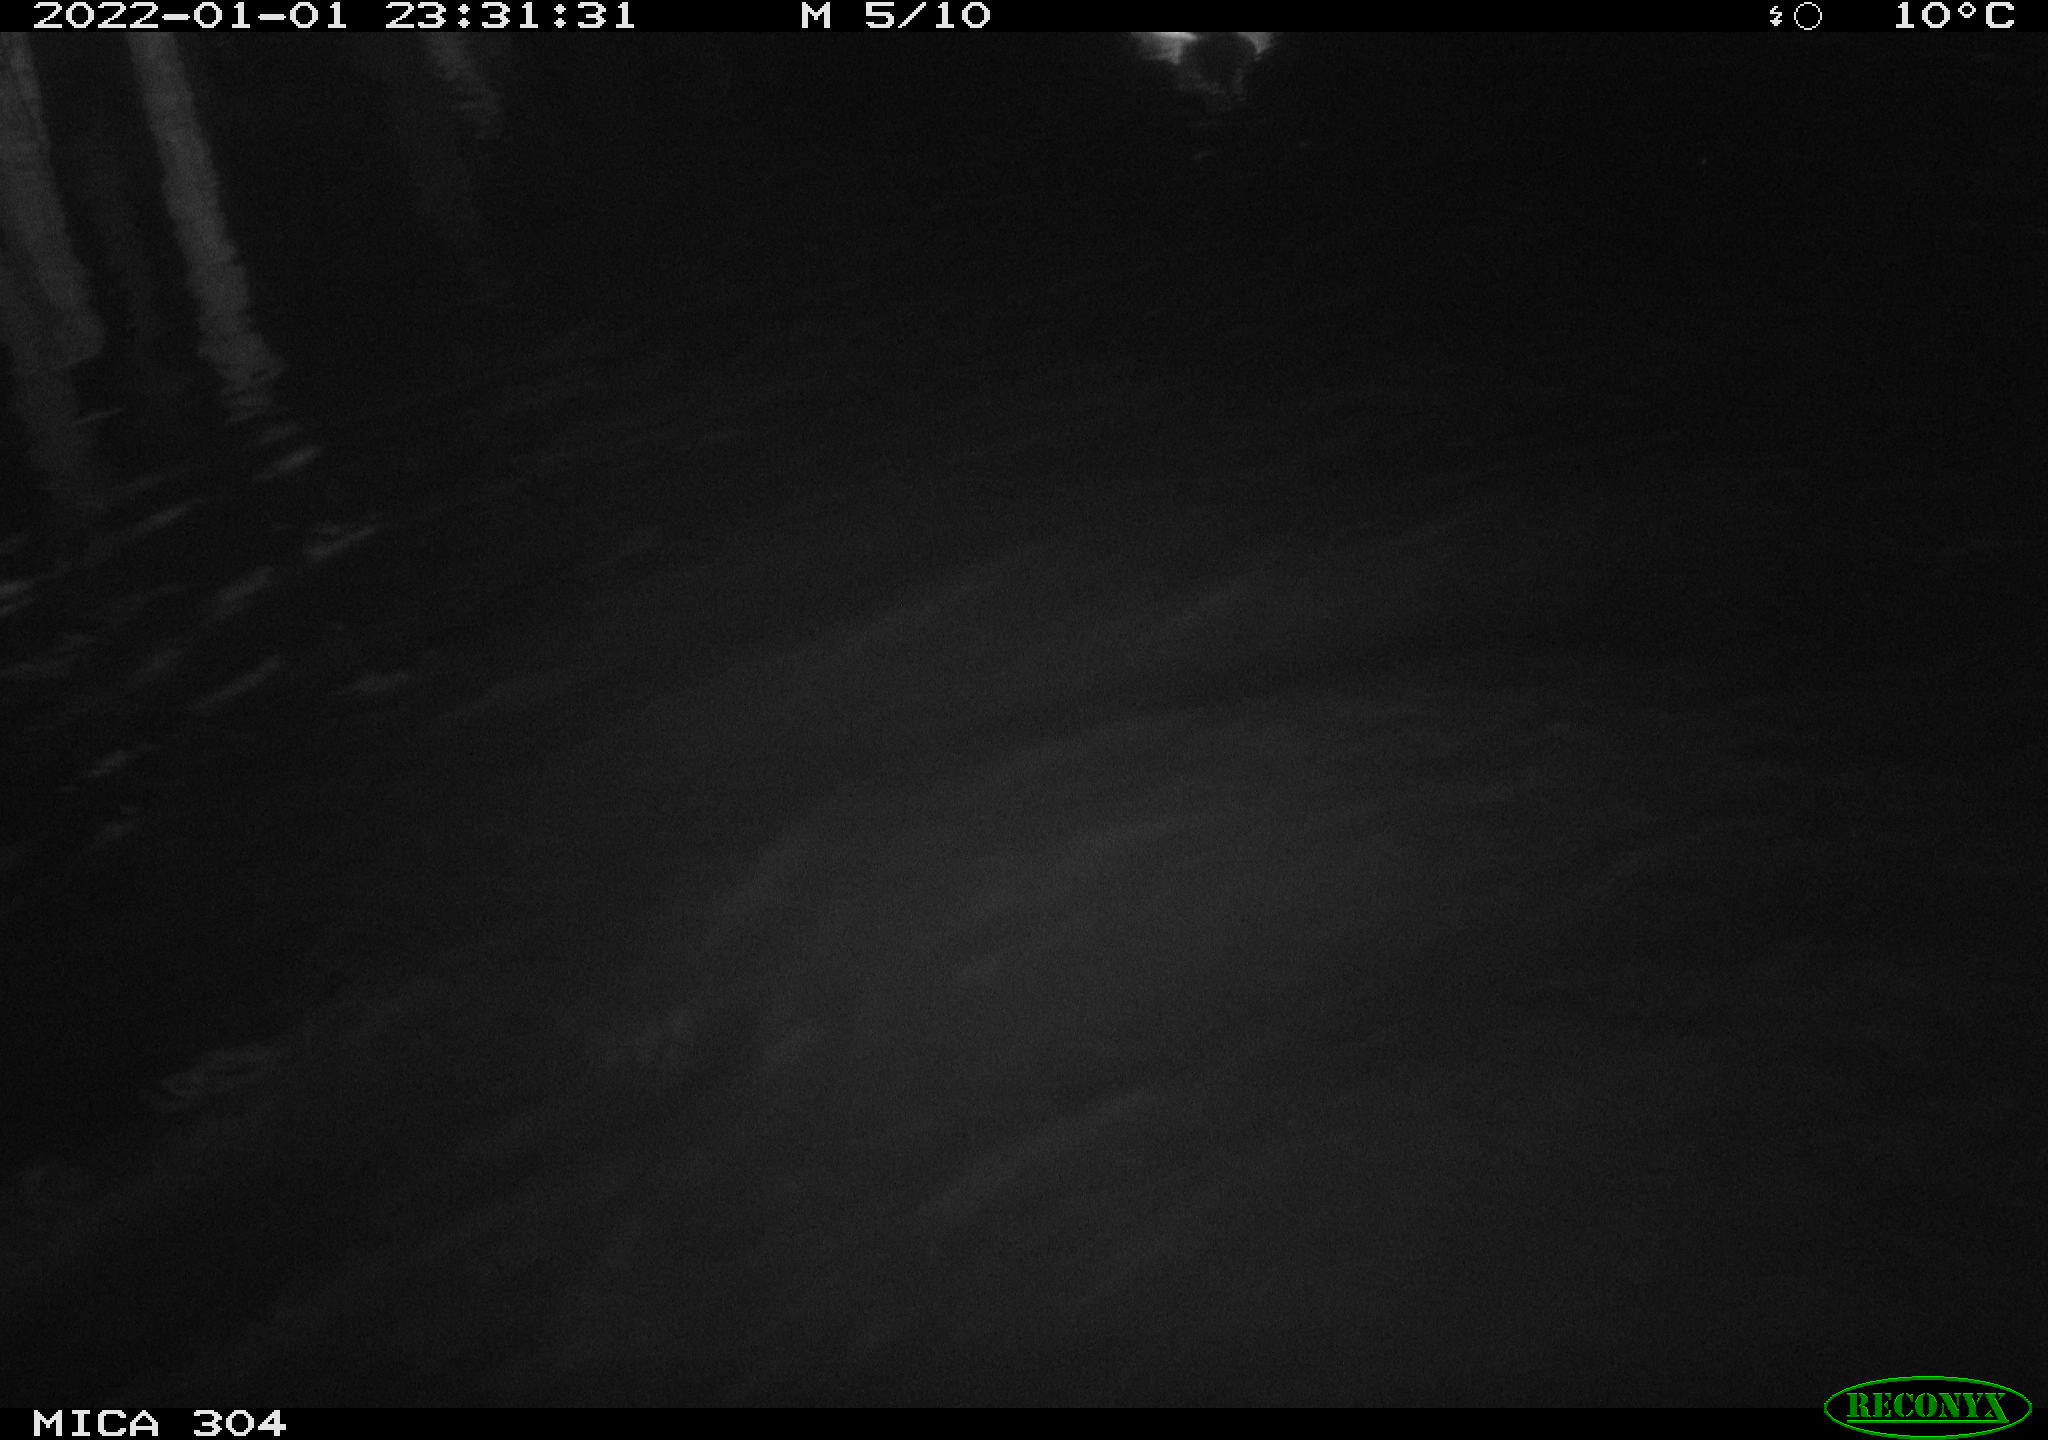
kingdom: Animalia
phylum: Chordata
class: Aves
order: Anseriformes
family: Anatidae
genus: Anas
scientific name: Anas
